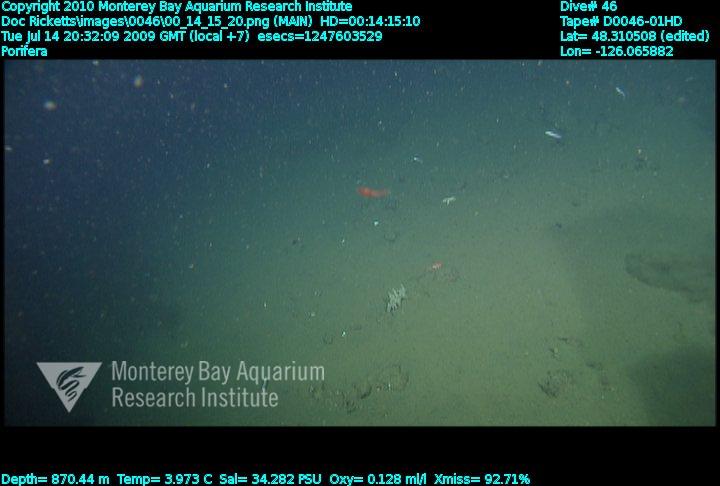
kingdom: Animalia
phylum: Porifera
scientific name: Porifera
